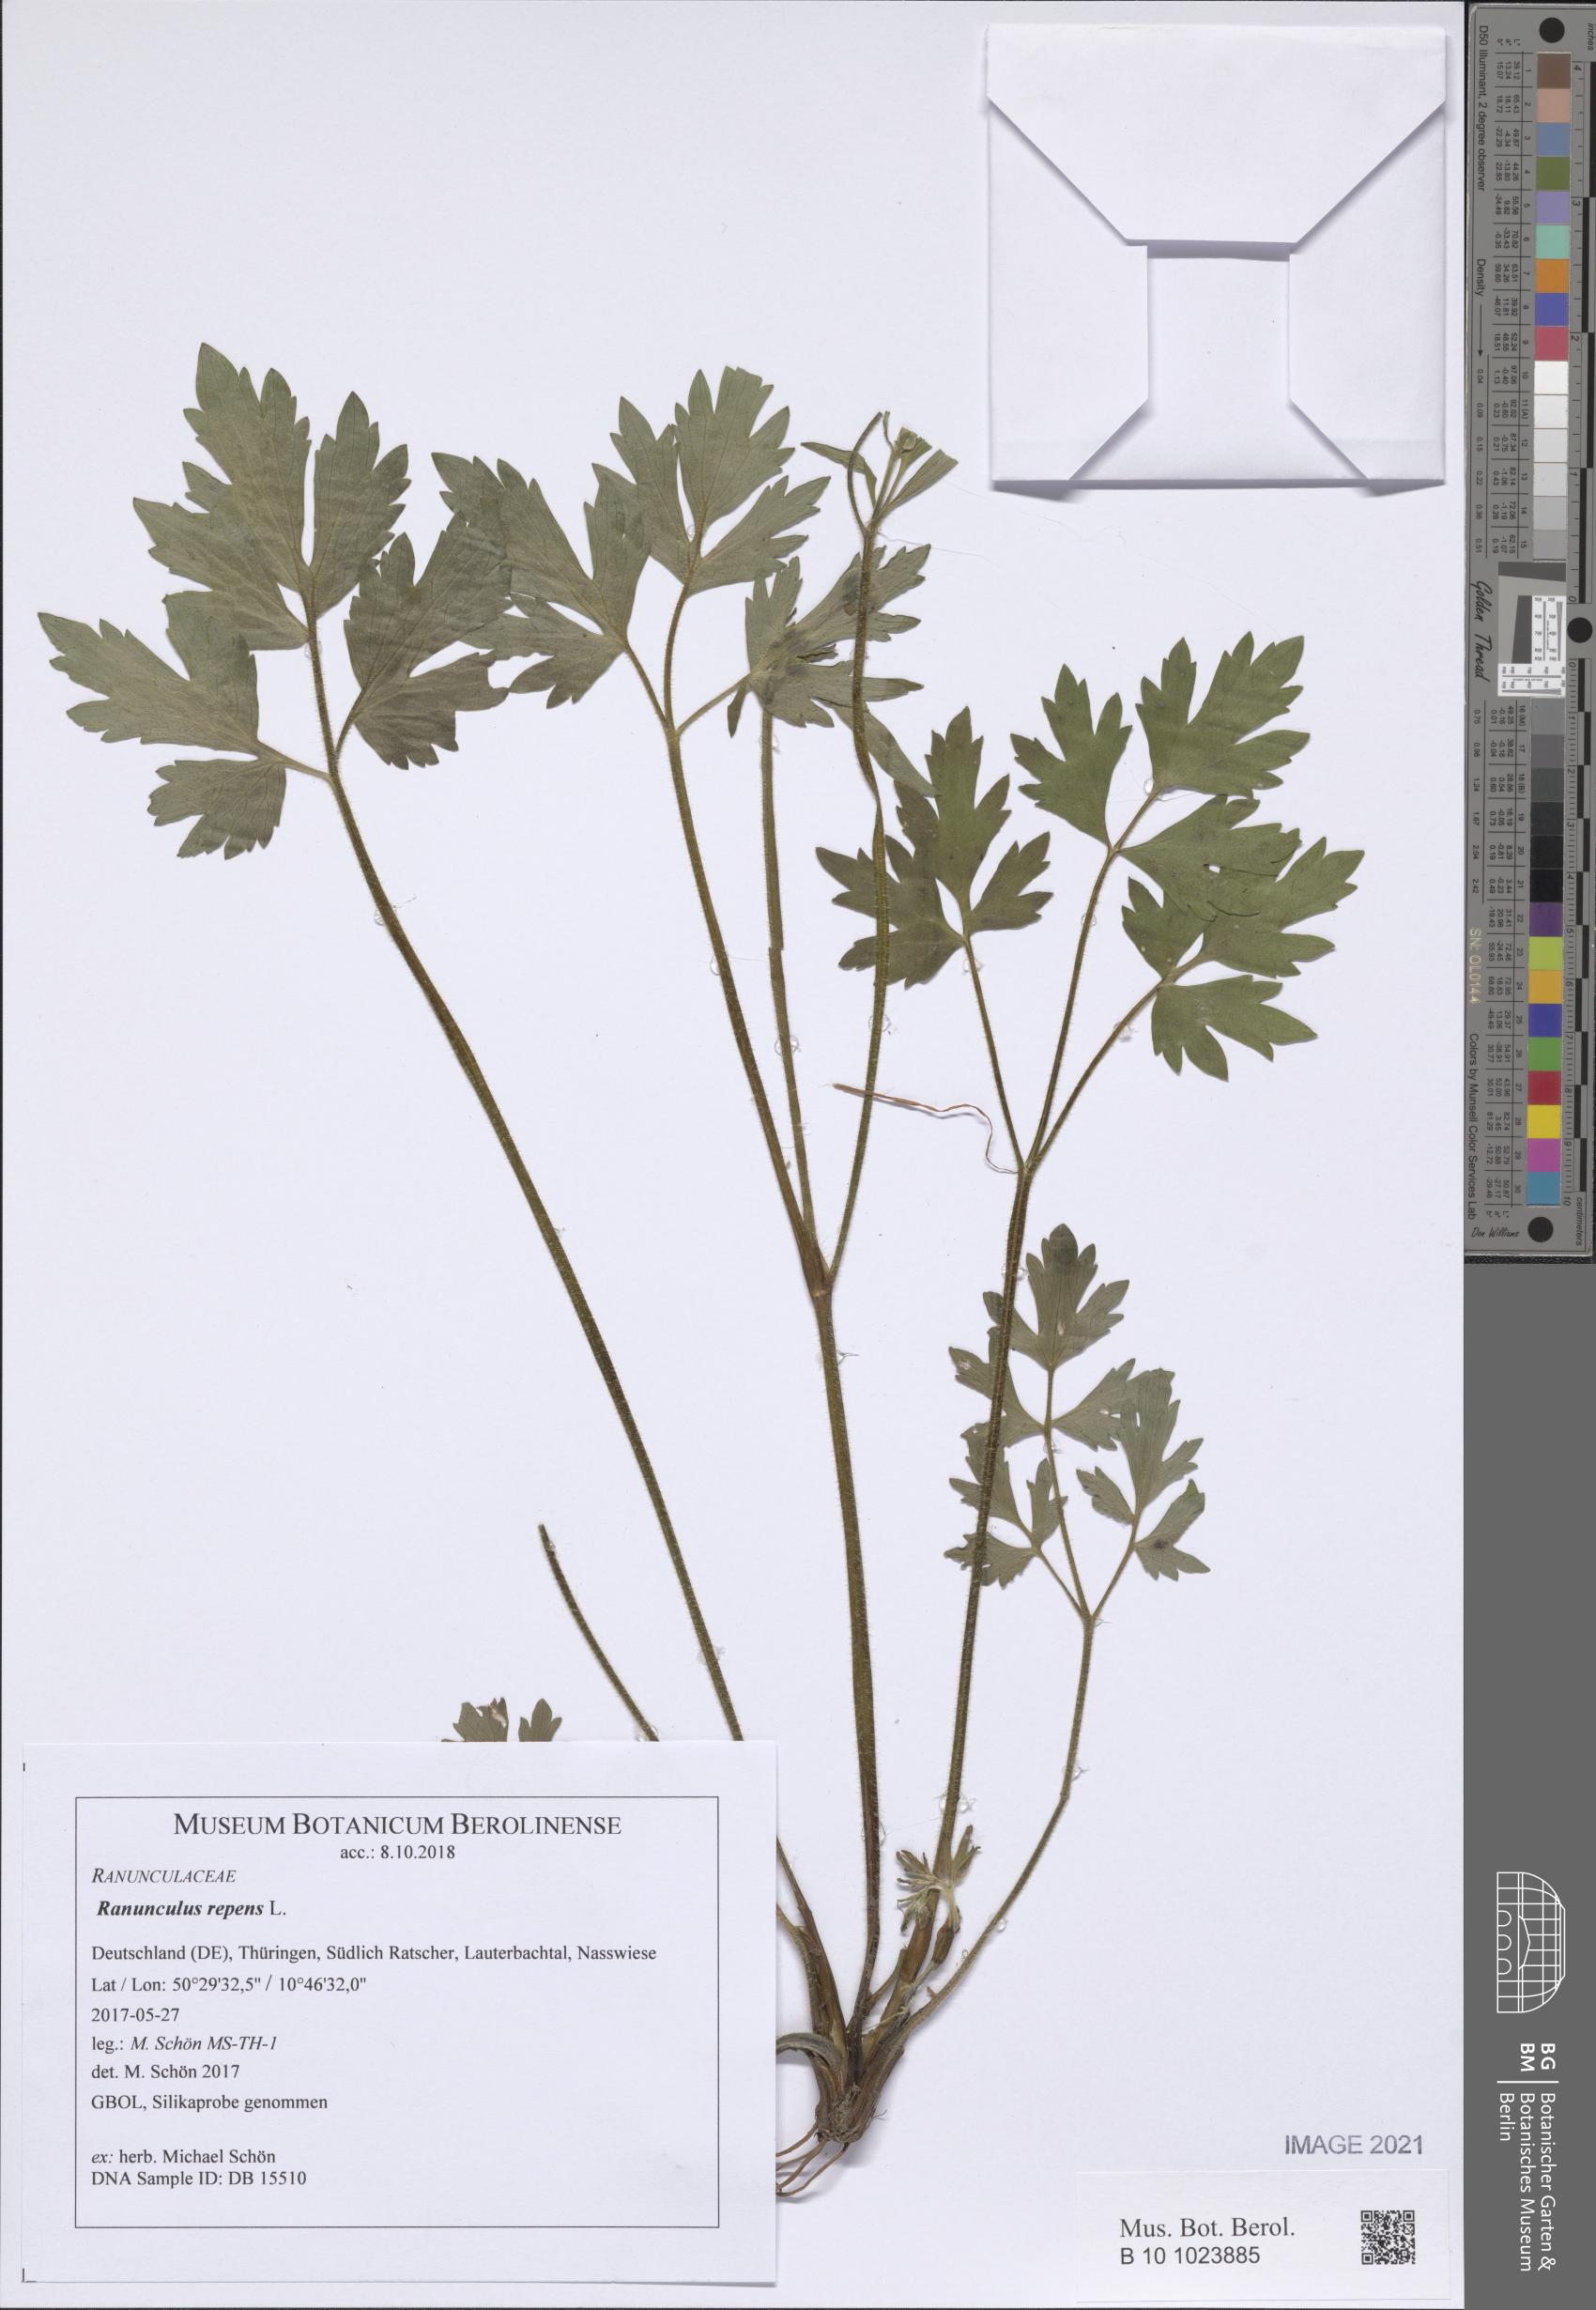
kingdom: Plantae
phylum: Tracheophyta
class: Magnoliopsida
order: Ranunculales
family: Ranunculaceae
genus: Ranunculus
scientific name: Ranunculus repens
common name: Creeping buttercup
